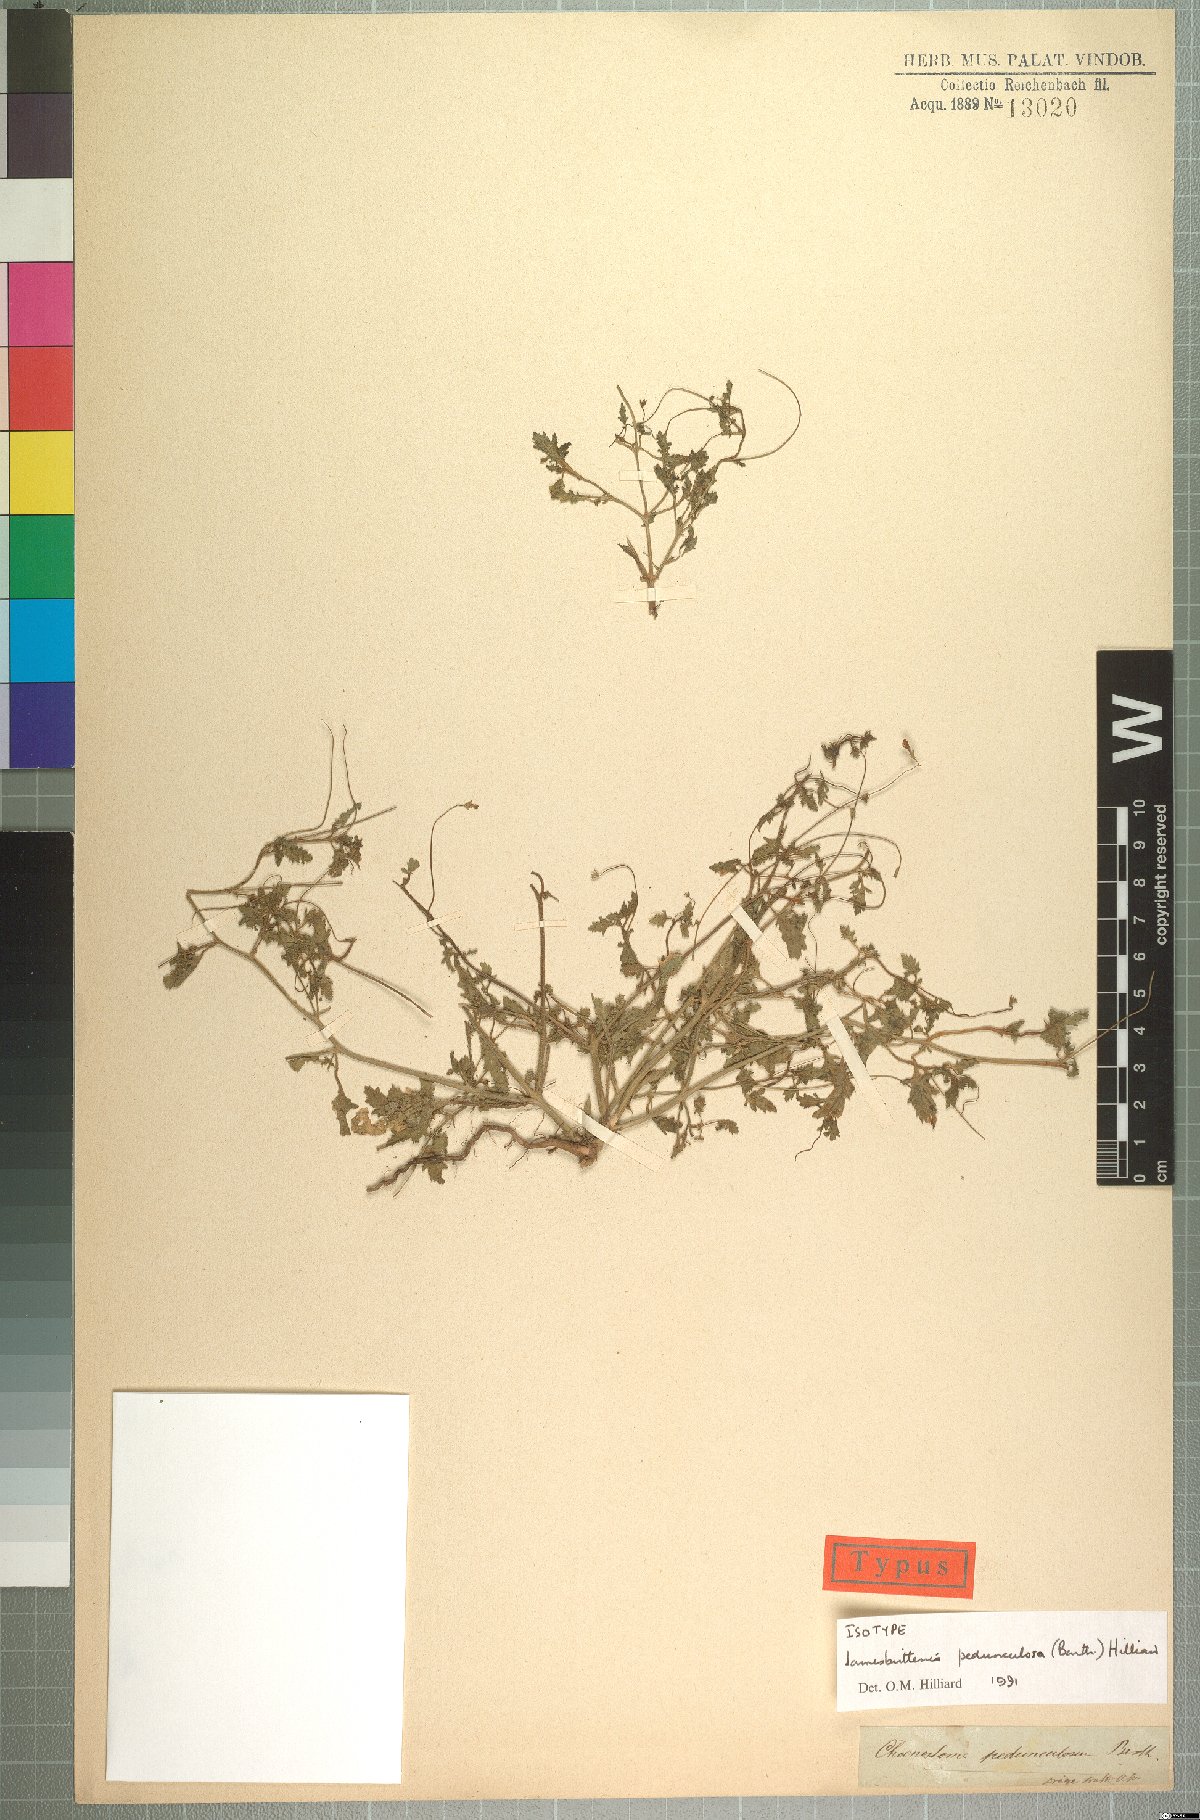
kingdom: Plantae
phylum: Tracheophyta
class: Magnoliopsida
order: Lamiales
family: Scrophulariaceae
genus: Jamesbrittenia
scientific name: Jamesbrittenia pedunculosa
